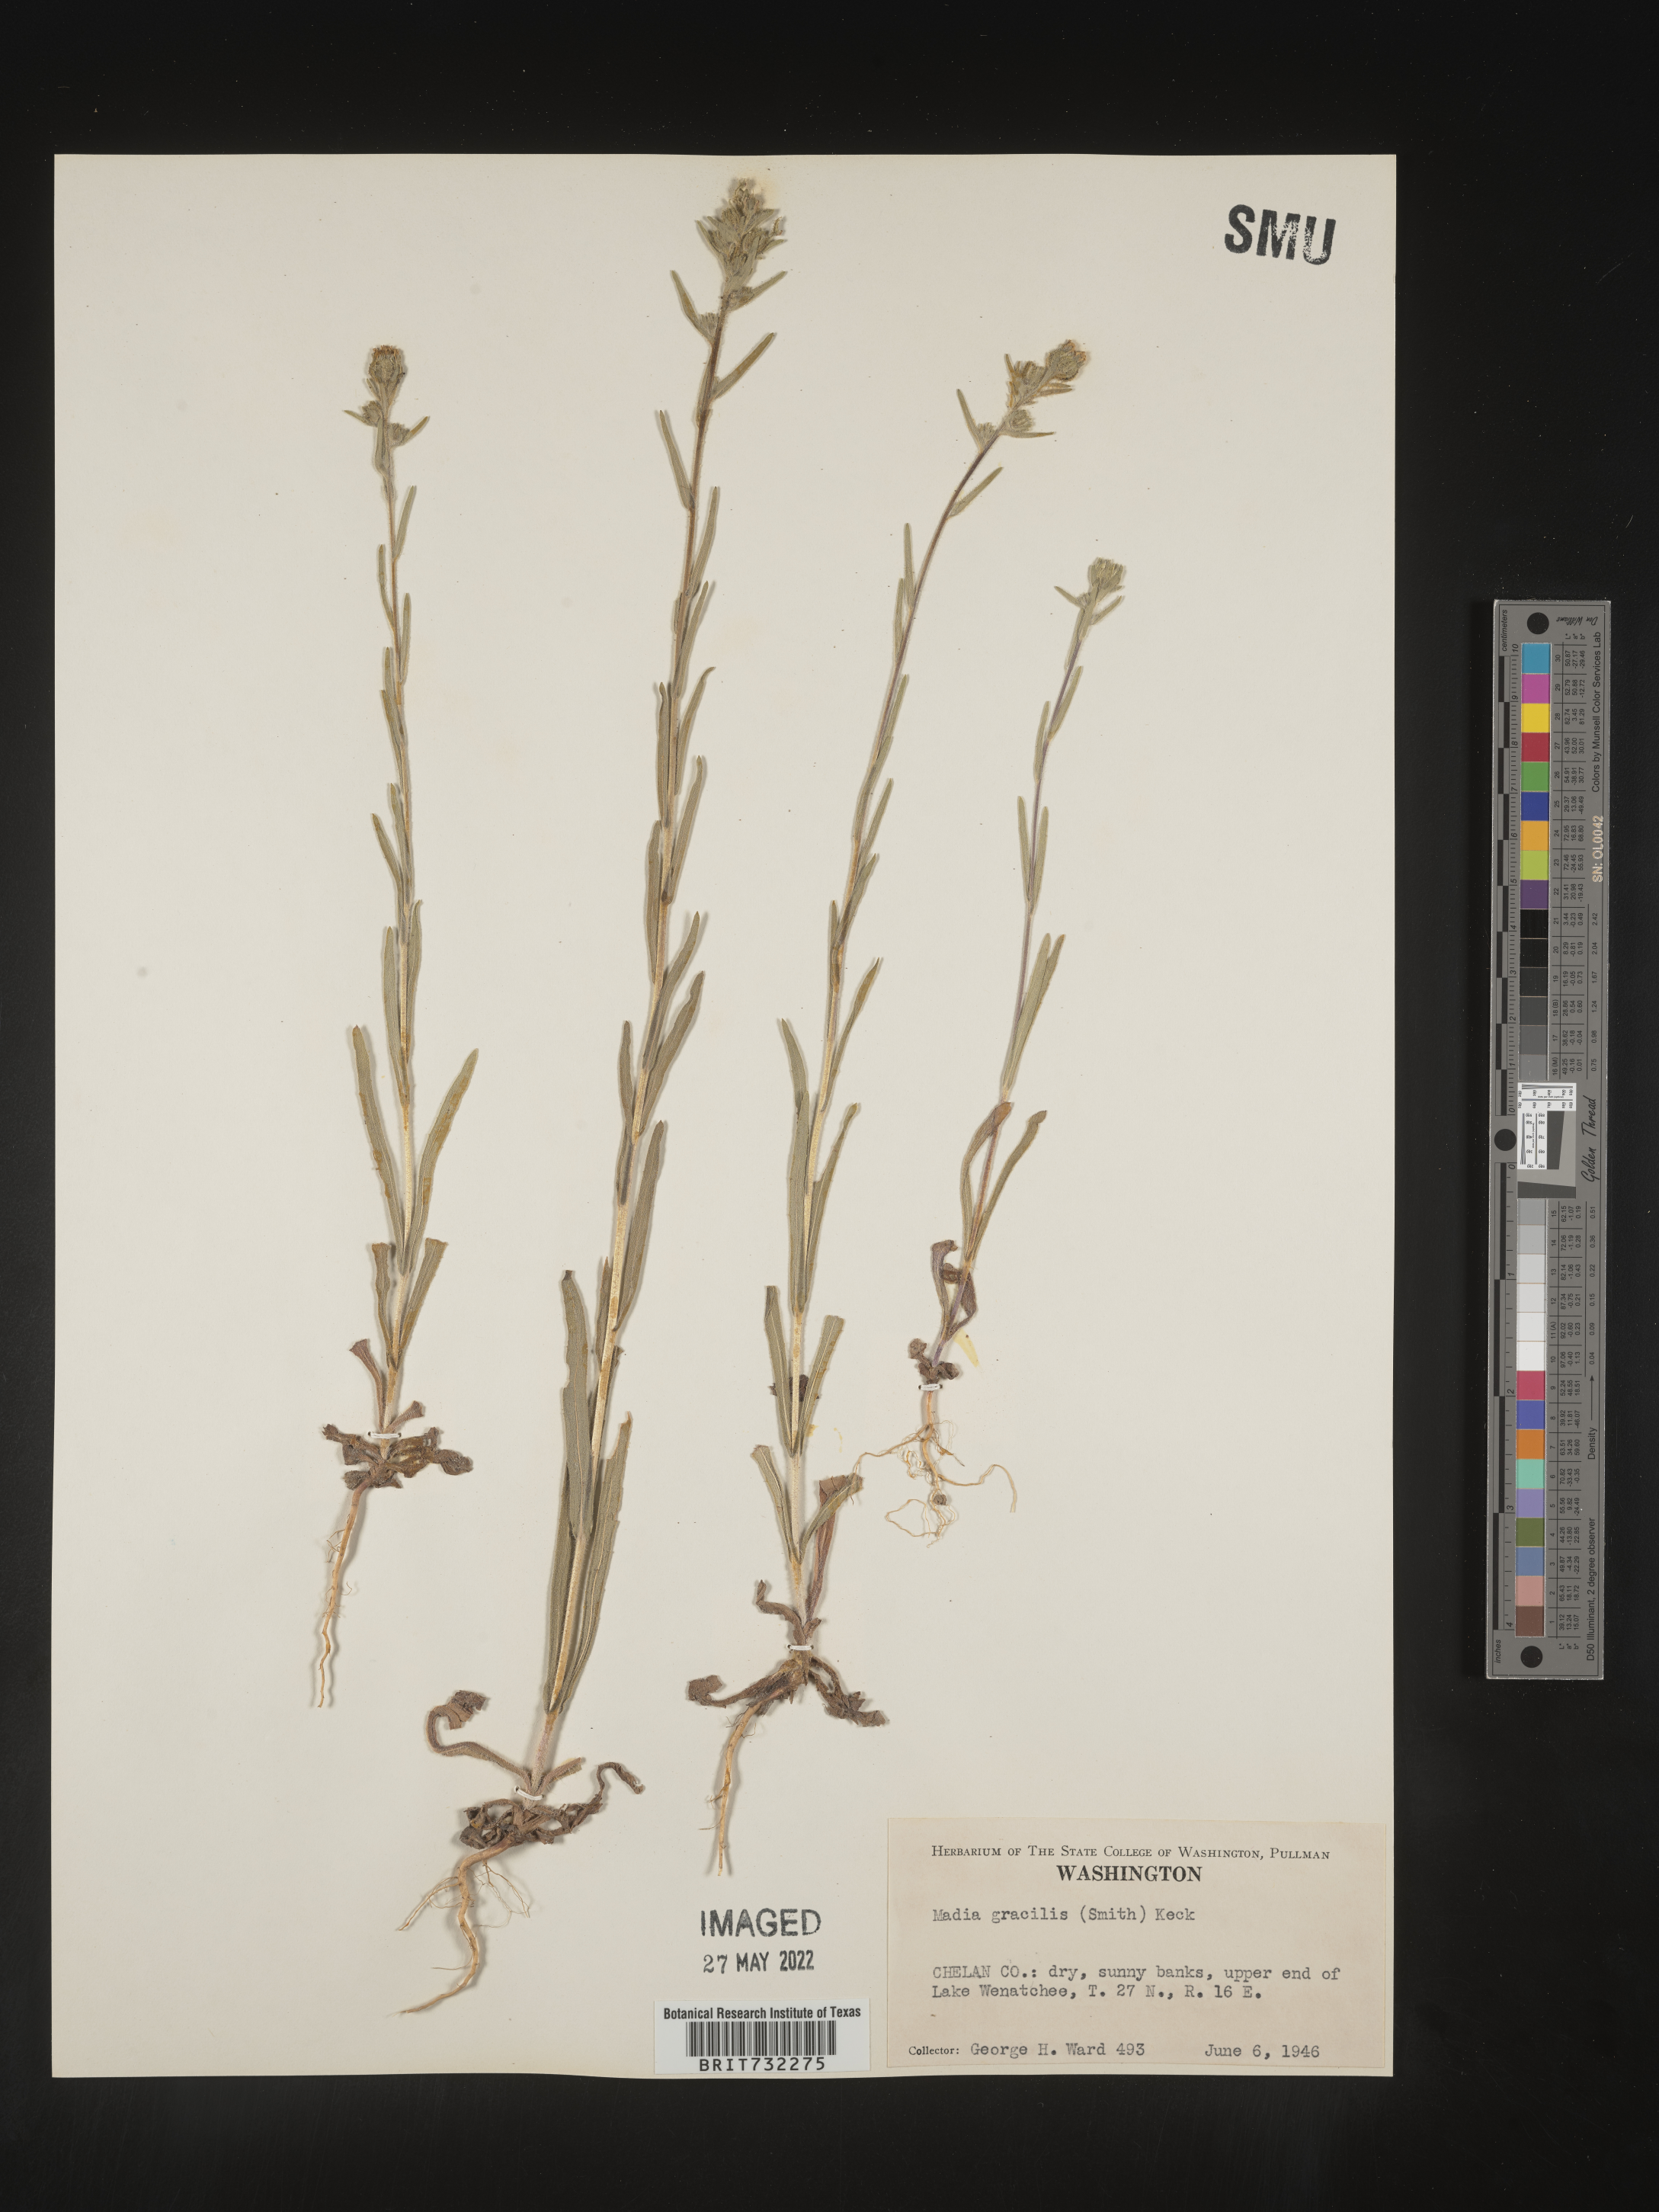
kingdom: Plantae
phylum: Tracheophyta
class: Magnoliopsida
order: Asterales
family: Asteraceae
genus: Madia
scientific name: Madia gracilis
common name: Grassy tarweed
